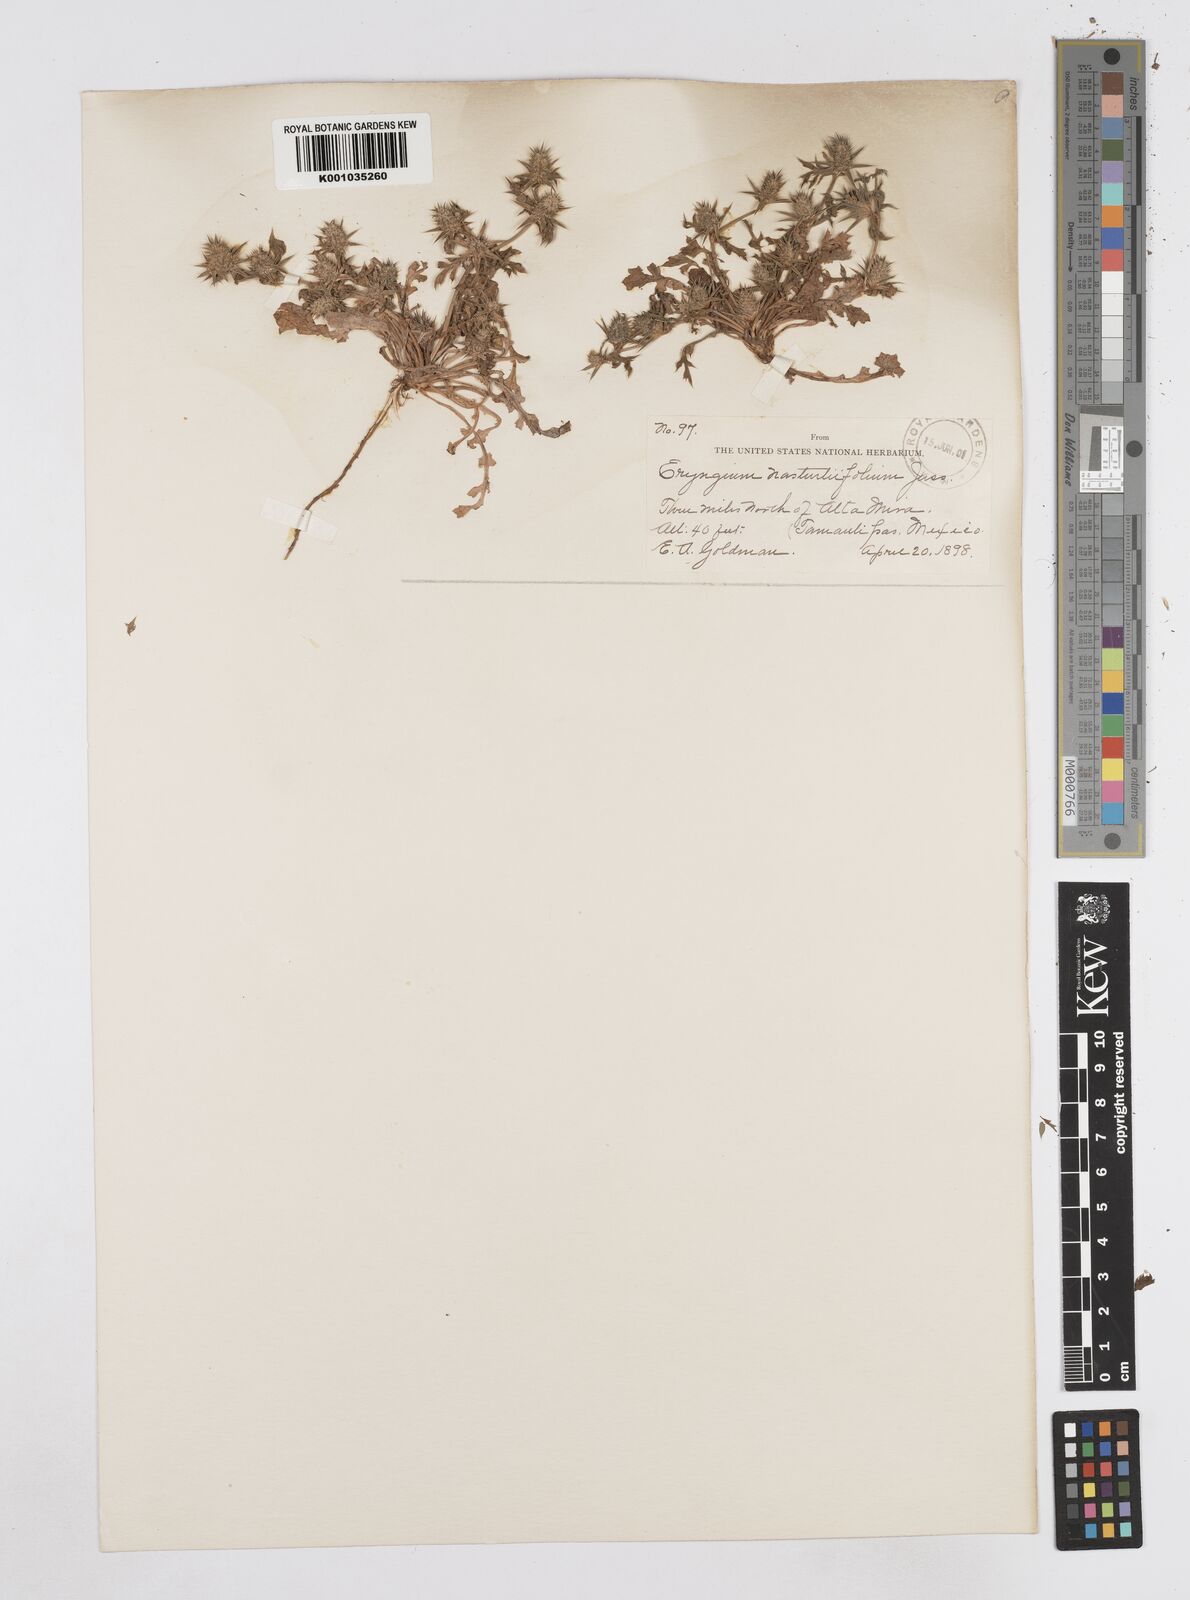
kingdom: Plantae
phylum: Tracheophyta
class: Magnoliopsida
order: Apiales
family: Apiaceae
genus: Eryngium
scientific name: Eryngium nasturtiifolium
